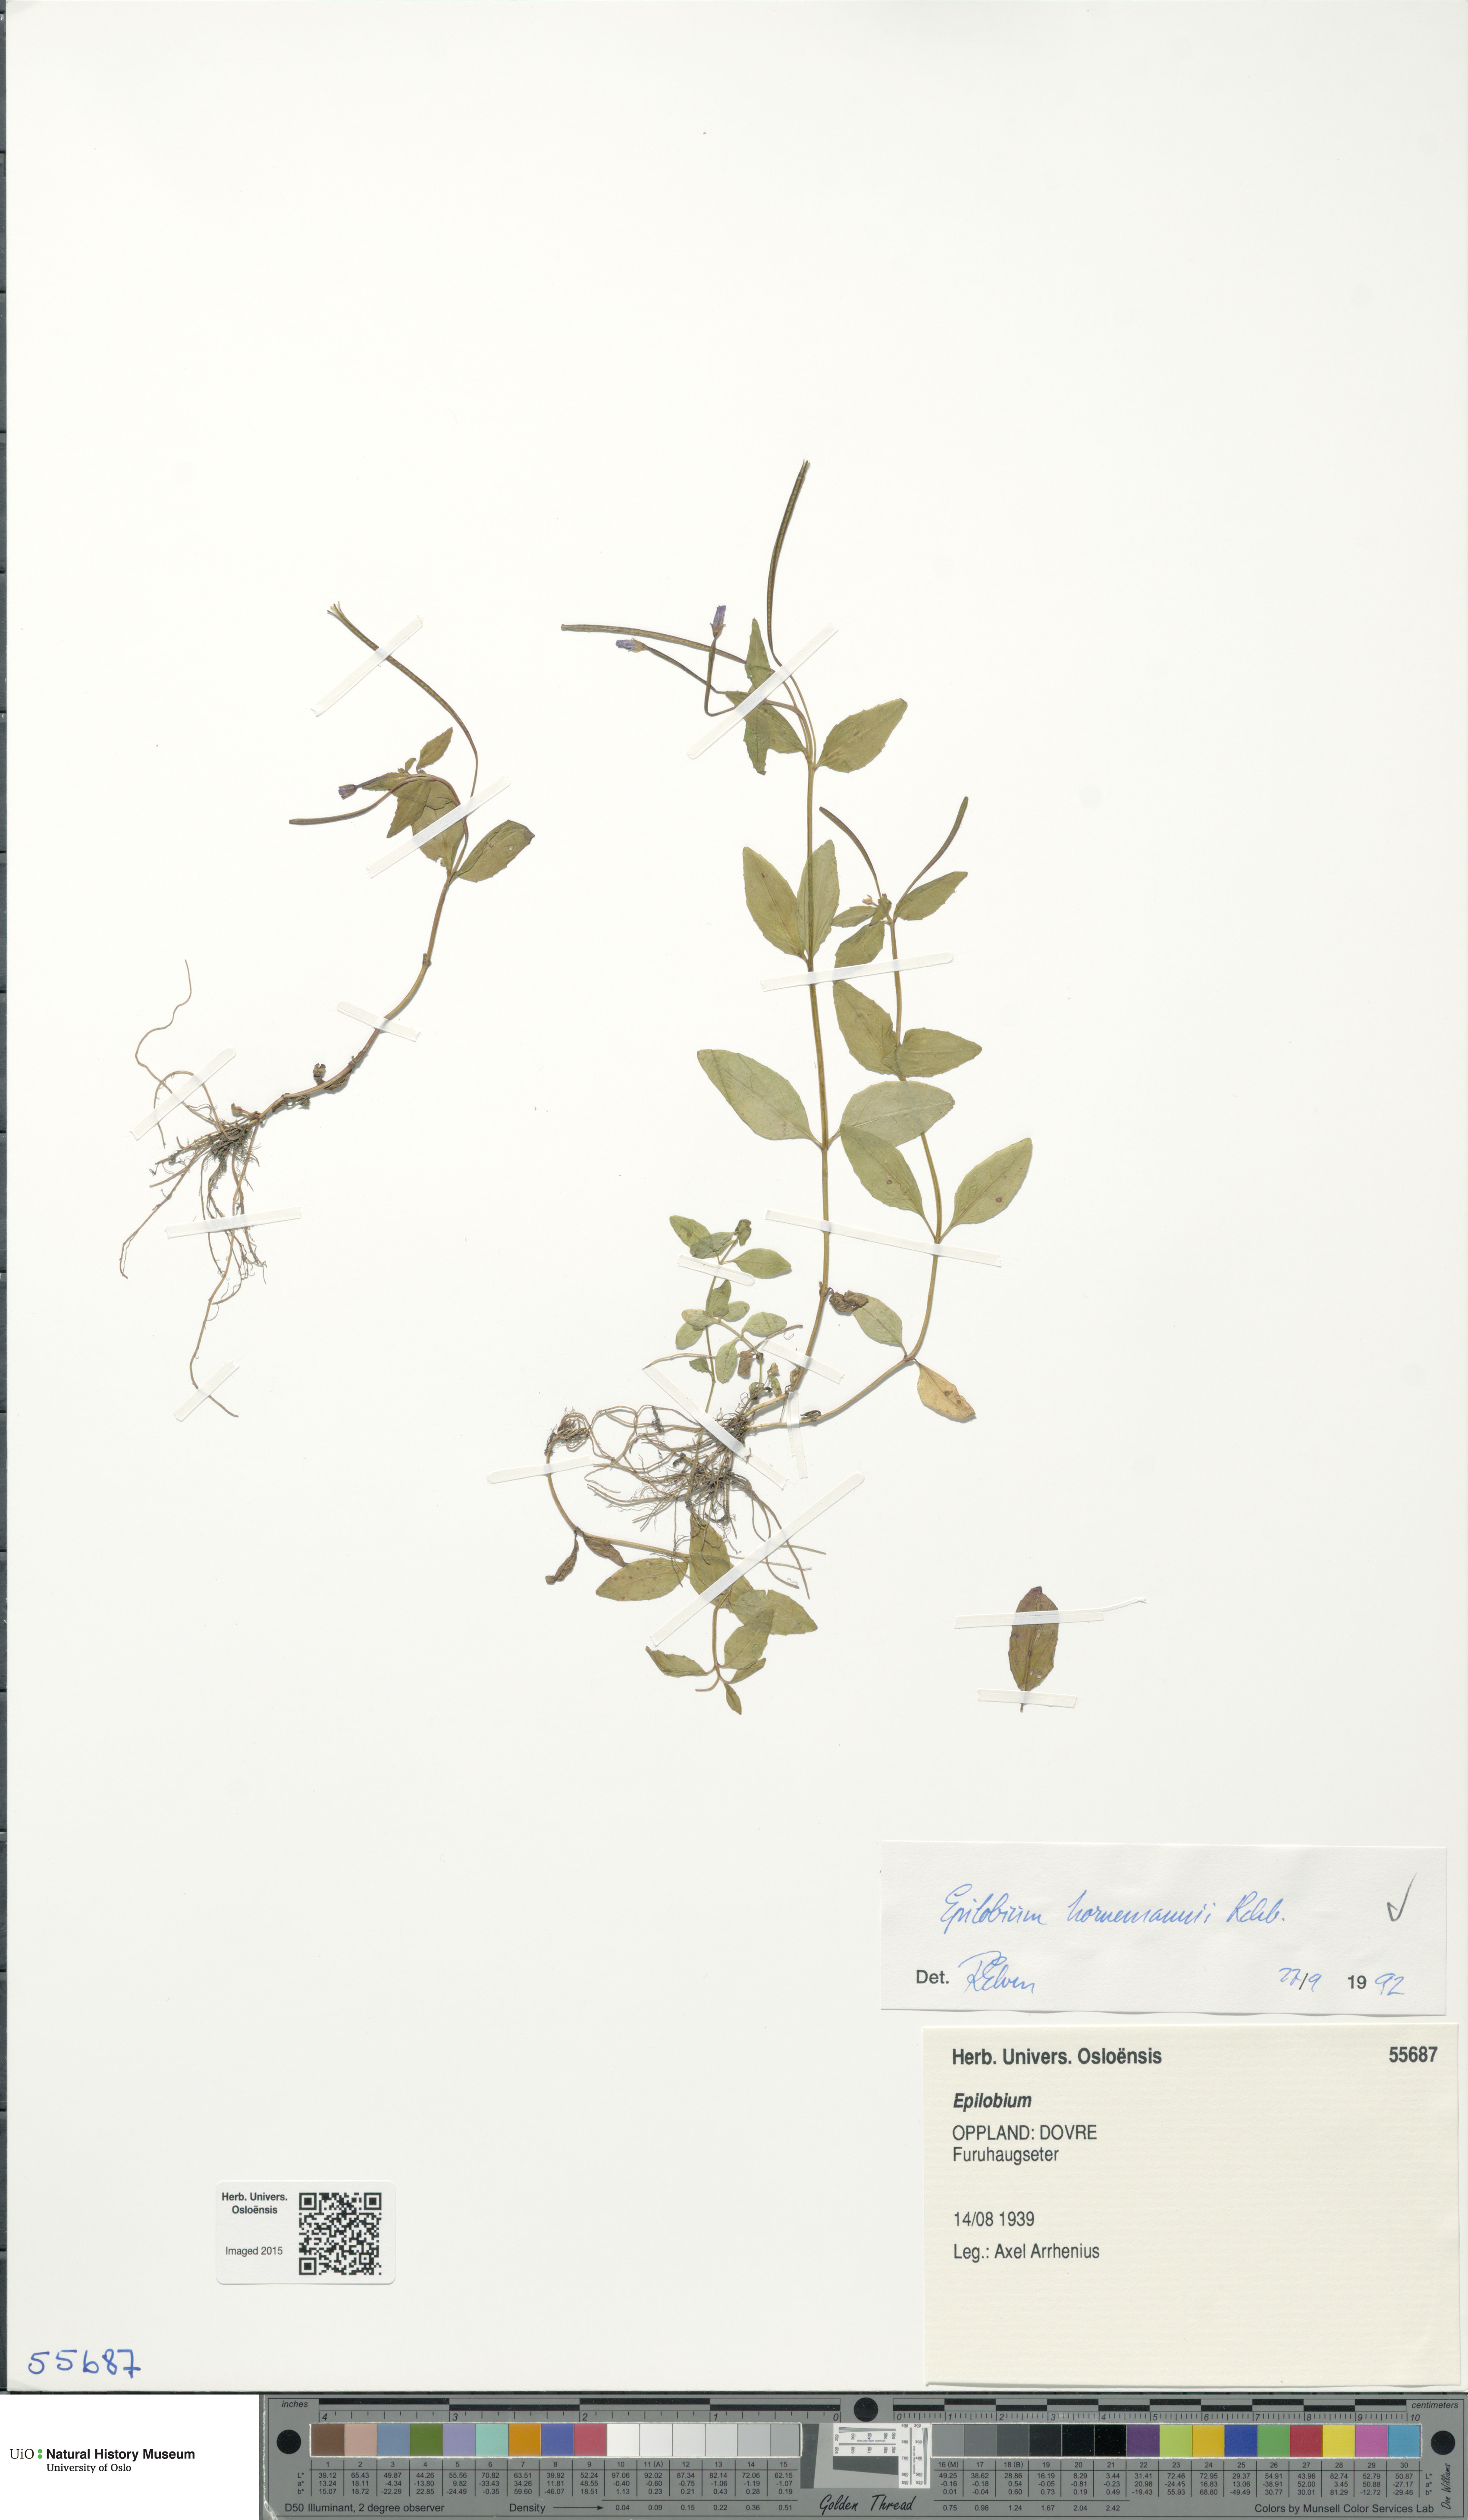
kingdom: Plantae
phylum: Tracheophyta
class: Magnoliopsida
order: Myrtales
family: Onagraceae
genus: Epilobium
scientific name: Epilobium hornemannii
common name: Hornemann's willowherb
